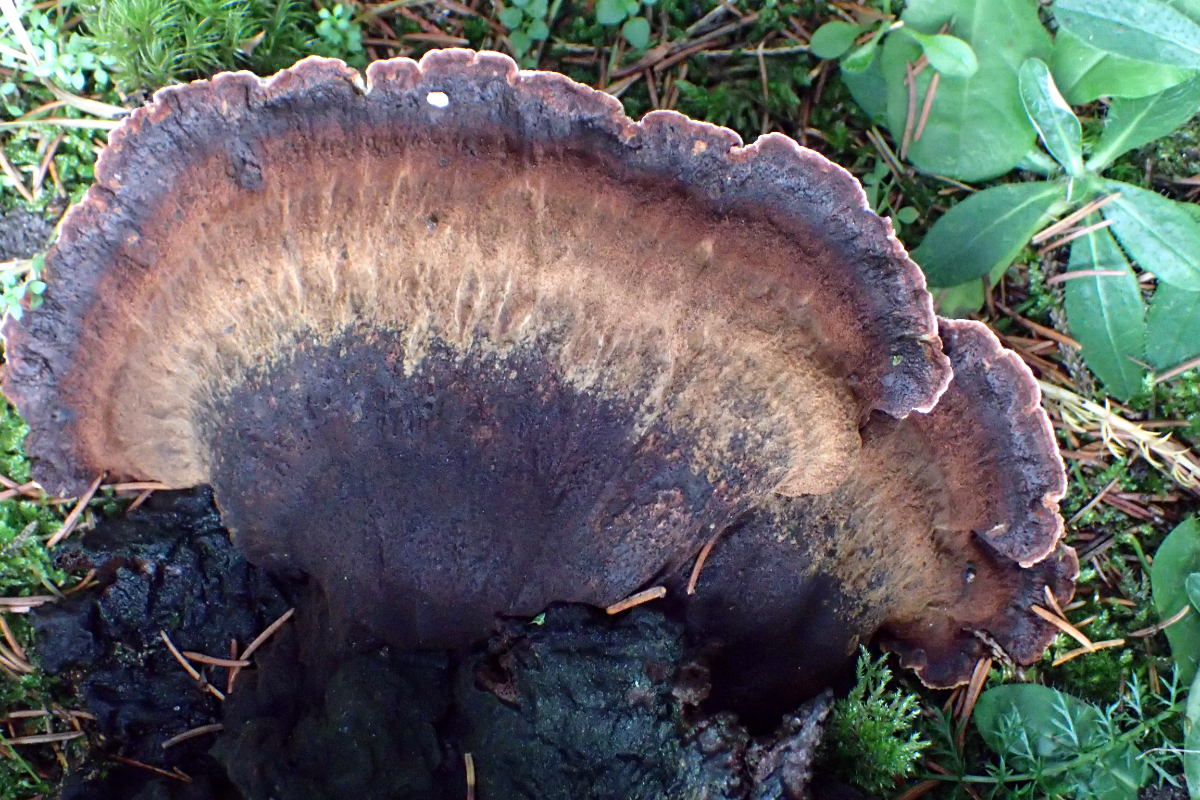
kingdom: Fungi
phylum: Basidiomycota
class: Agaricomycetes
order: Polyporales
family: Ischnodermataceae
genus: Ischnoderma
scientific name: Ischnoderma benzoinum
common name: gran-tjæreporesvamp
